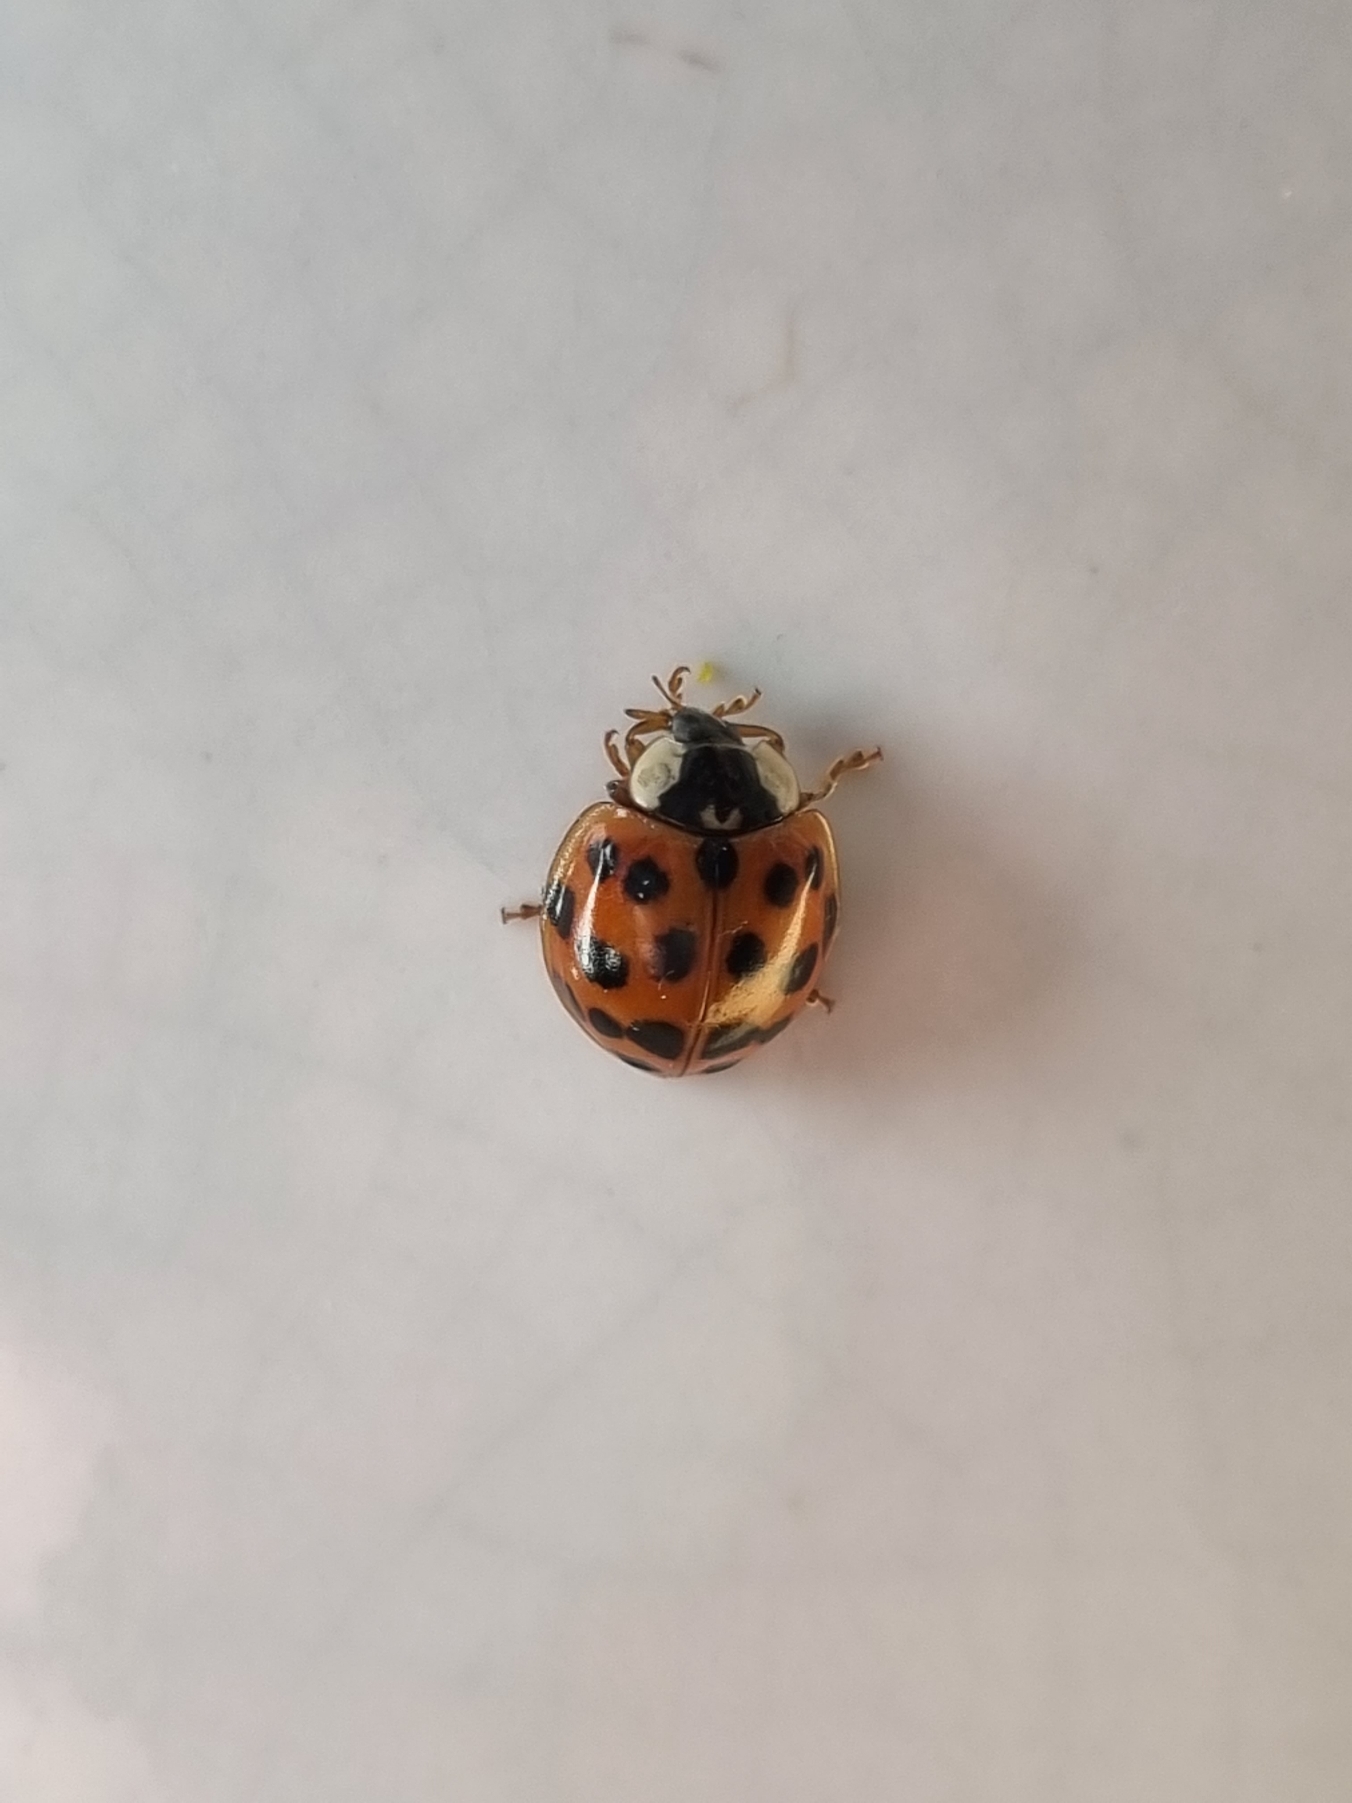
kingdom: Animalia
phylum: Arthropoda
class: Insecta
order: Coleoptera
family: Coccinellidae
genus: Harmonia
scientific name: Harmonia axyridis
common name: Harlekinmariehøne
